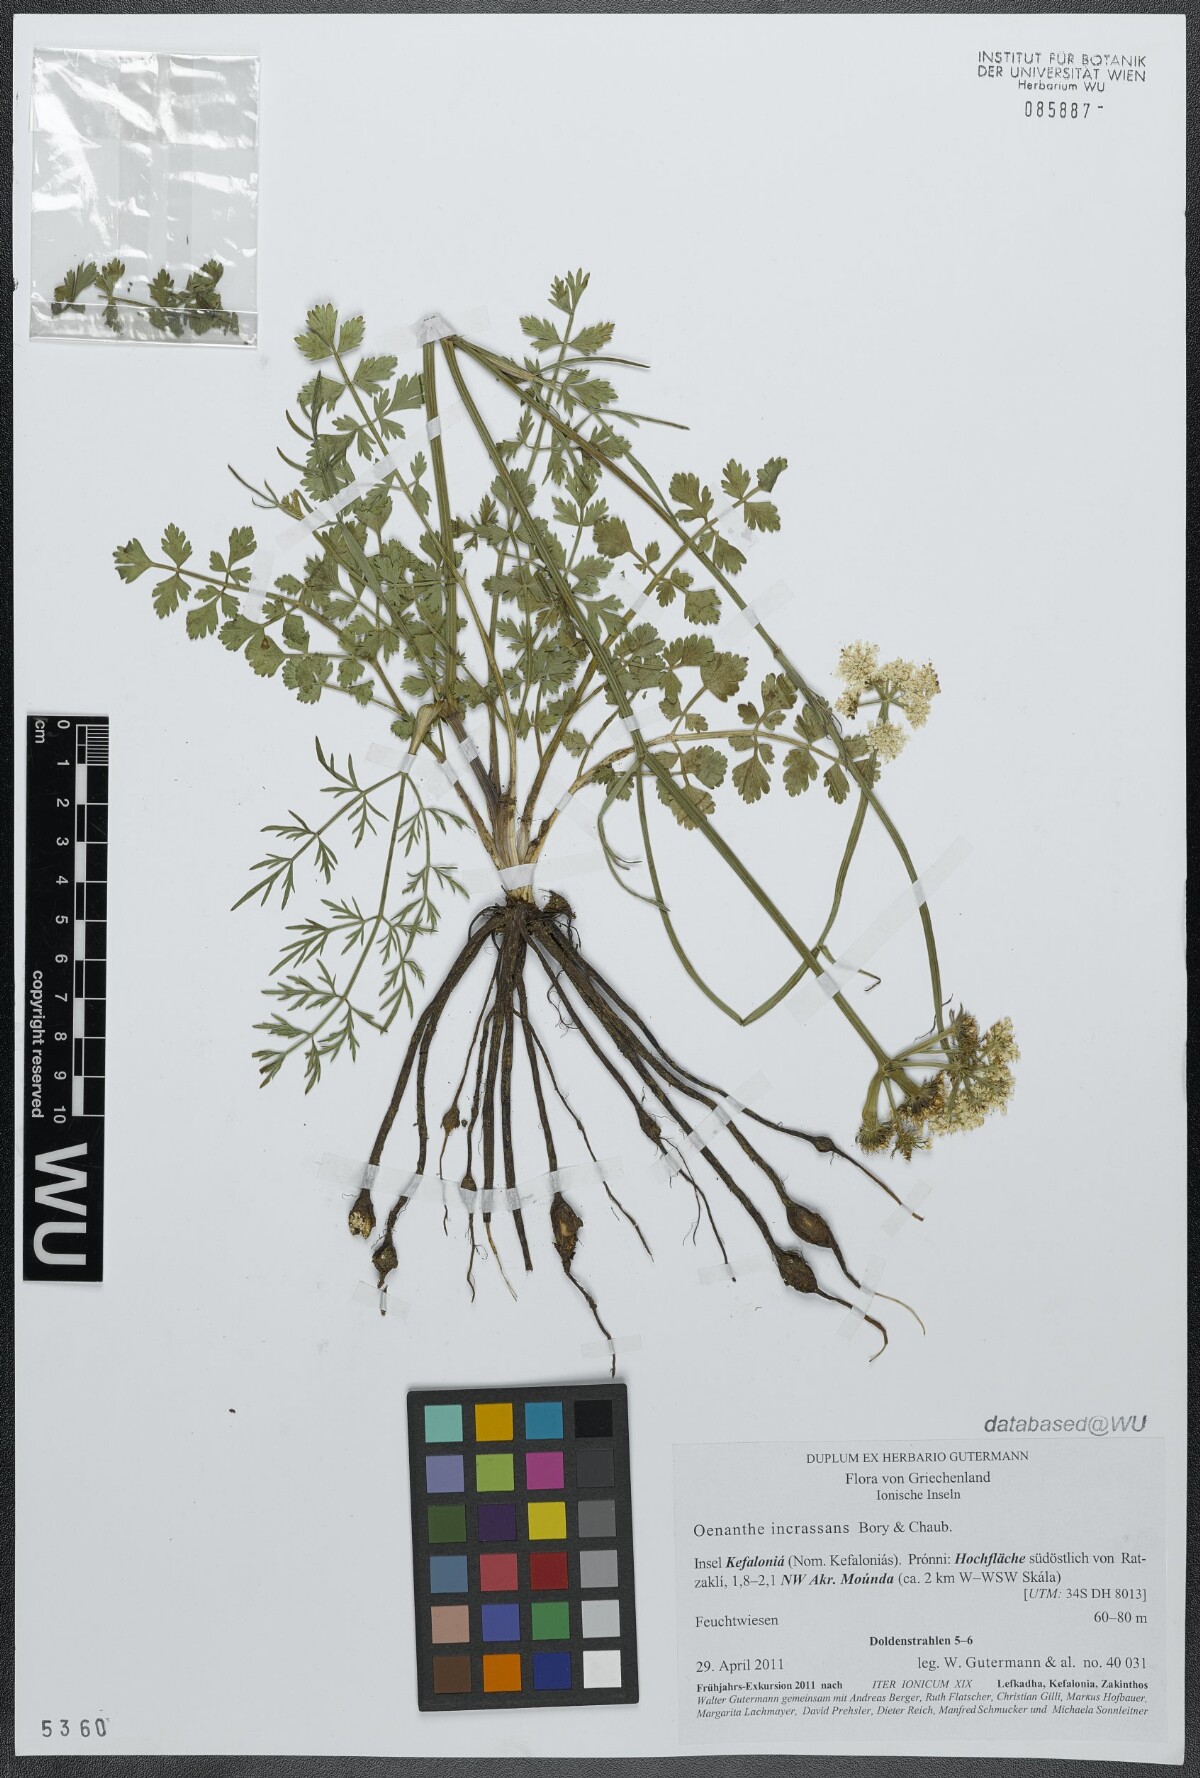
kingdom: Plantae
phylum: Tracheophyta
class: Magnoliopsida
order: Apiales
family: Apiaceae
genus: Oenanthe
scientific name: Oenanthe pimpinelloides
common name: Corky-fruited water-dropwort
